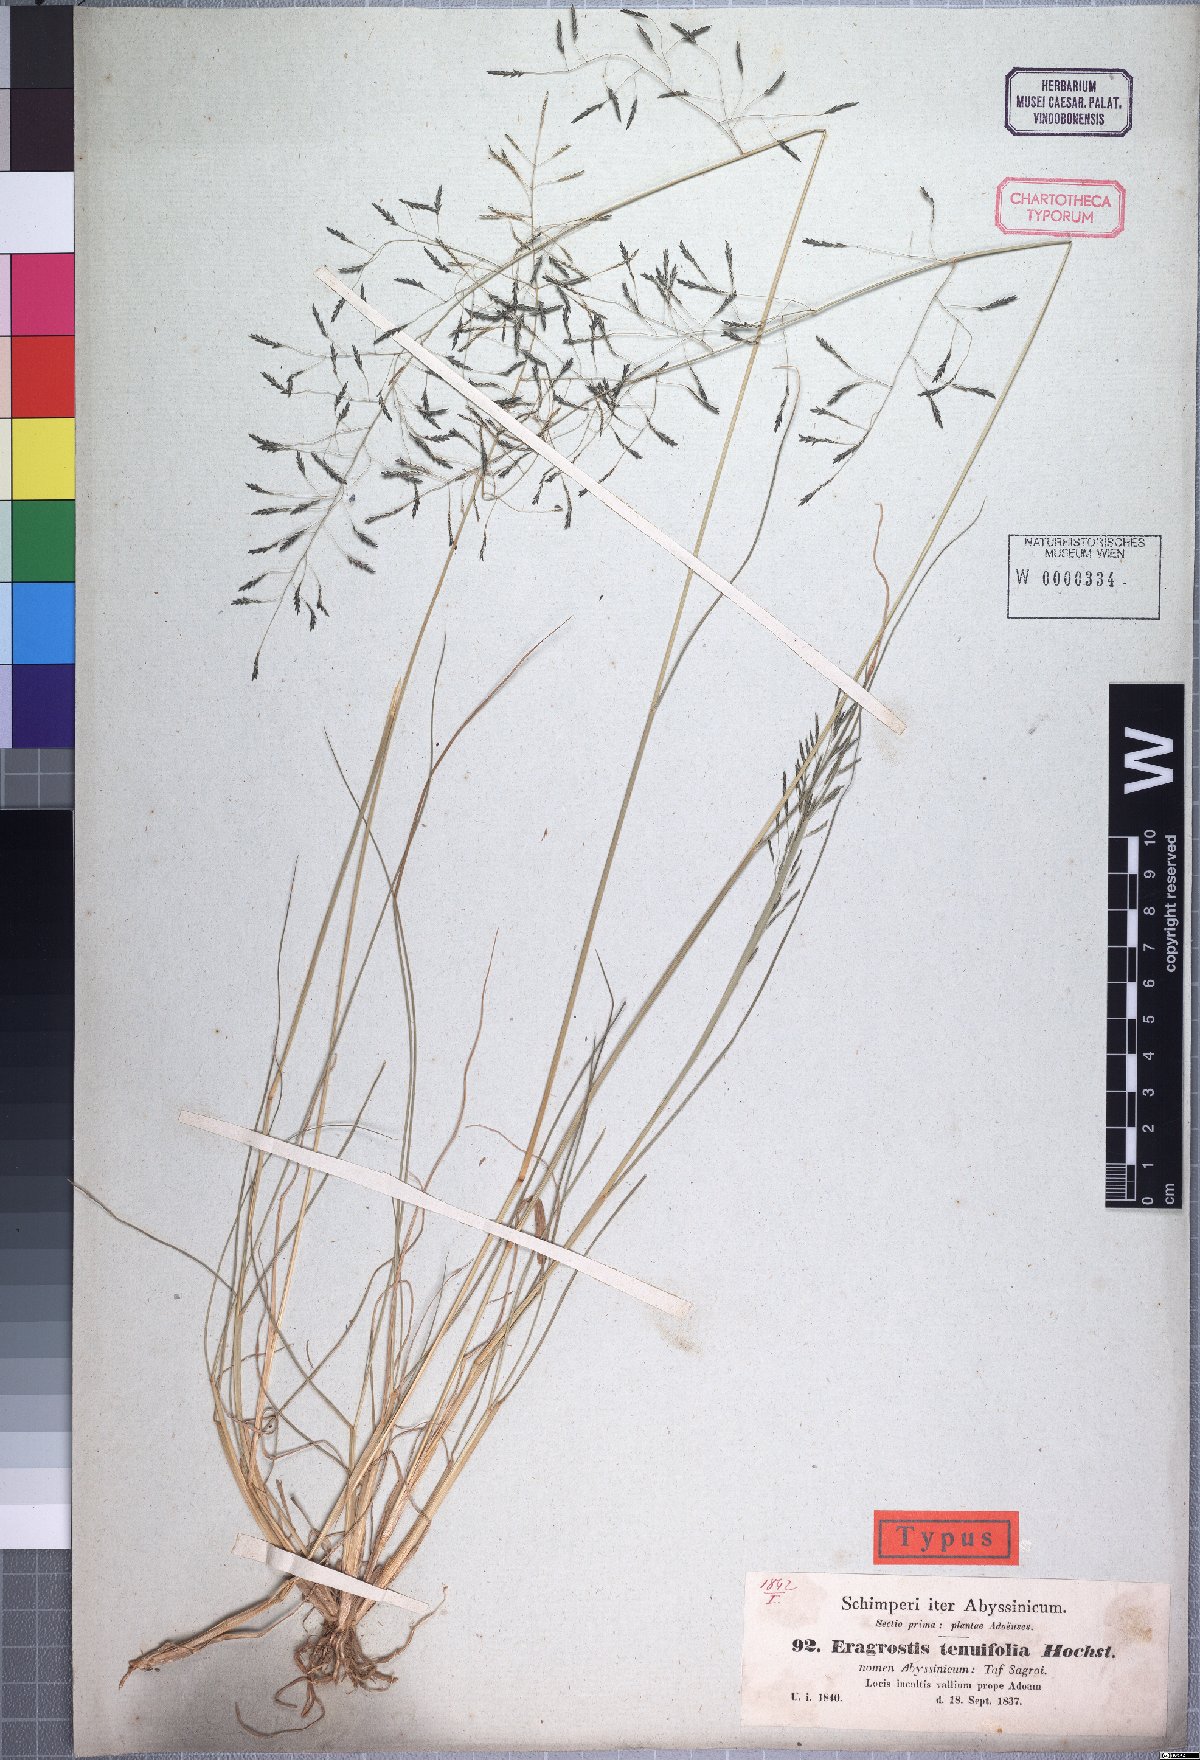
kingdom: Plantae
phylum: Tracheophyta
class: Liliopsida
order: Poales
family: Poaceae
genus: Eragrostis
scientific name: Eragrostis tenuifolia
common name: Elastic grass
